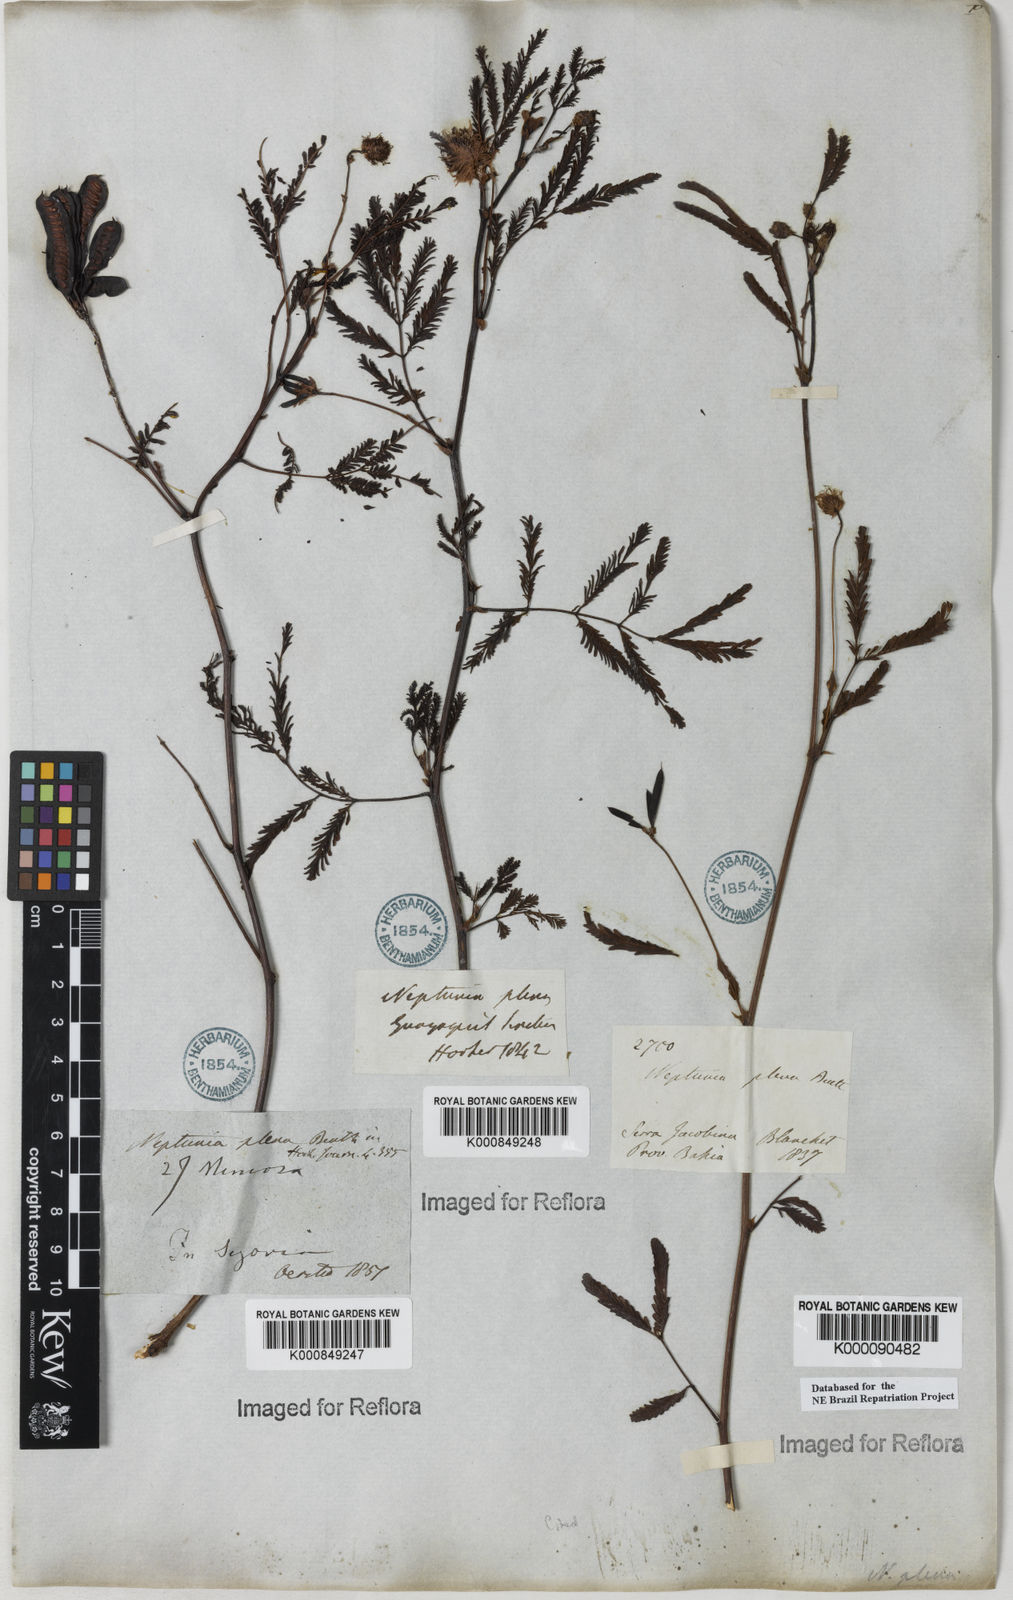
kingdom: Plantae
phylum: Tracheophyta
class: Magnoliopsida
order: Fabales
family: Fabaceae
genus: Neptunia
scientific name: Neptunia plena
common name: Dead and awake
